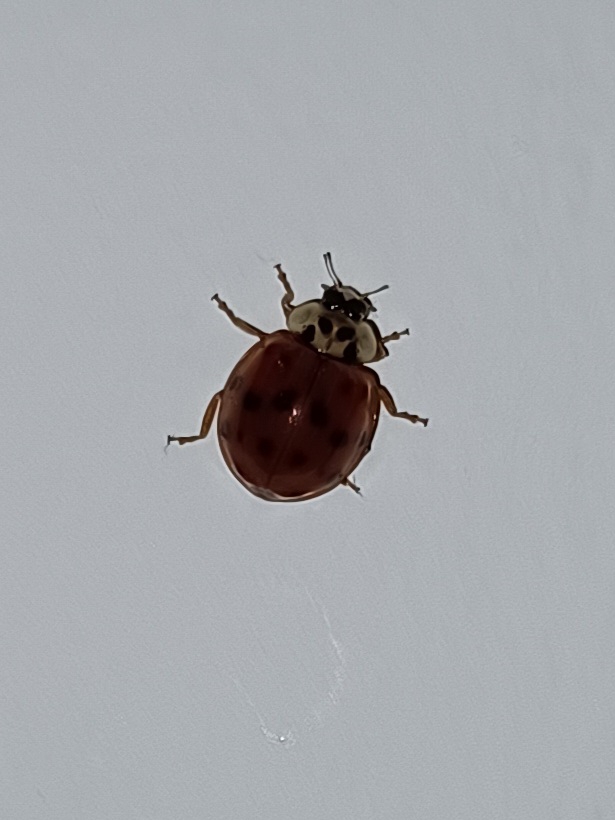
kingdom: Animalia
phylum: Arthropoda
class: Insecta
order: Coleoptera
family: Coccinellidae
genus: Harmonia
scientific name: Harmonia axyridis
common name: Harlekinmariehøne
